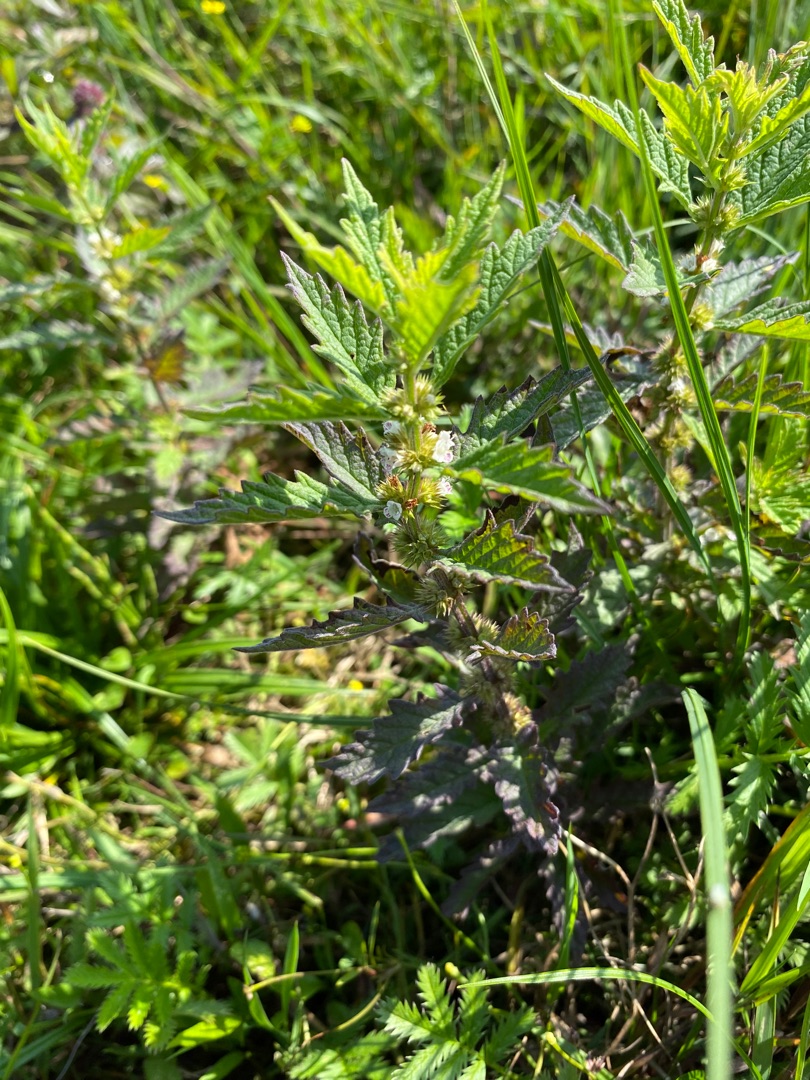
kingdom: Plantae
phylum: Tracheophyta
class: Magnoliopsida
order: Lamiales
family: Lamiaceae
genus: Lycopus
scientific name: Lycopus europaeus
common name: Sværtevæld
